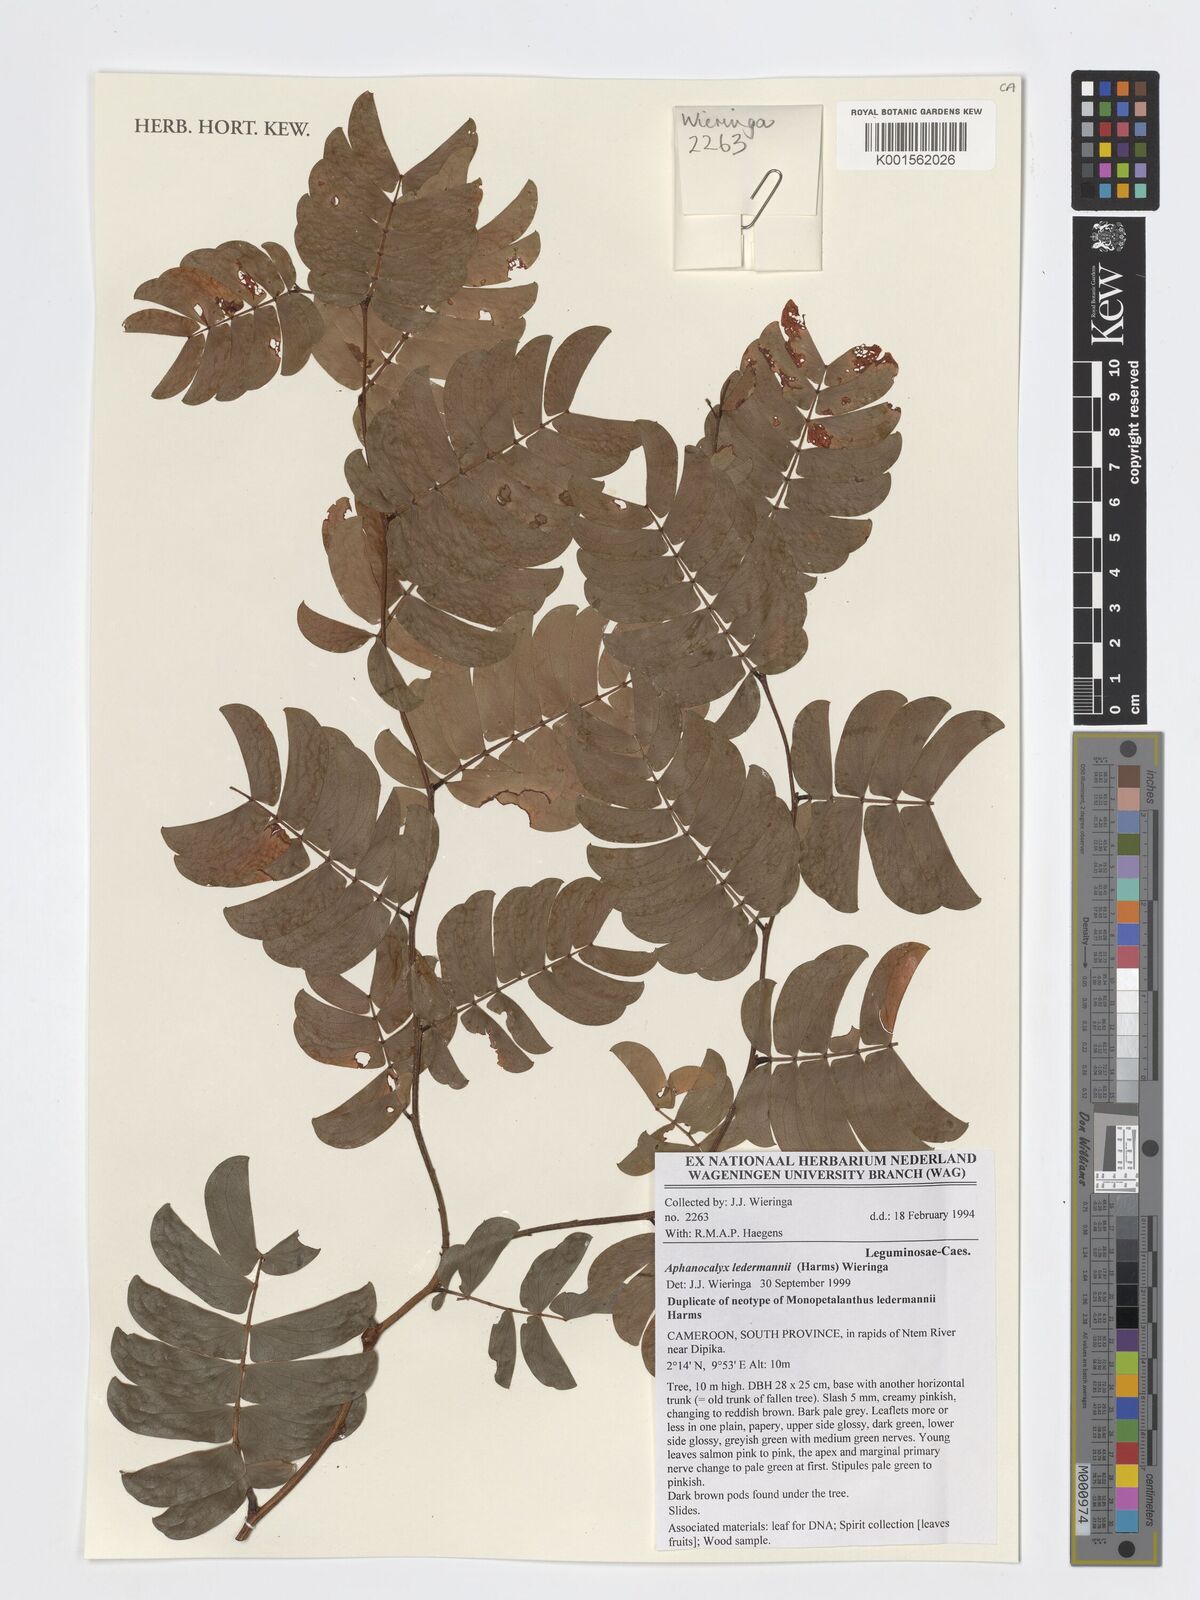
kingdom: Plantae
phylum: Tracheophyta
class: Magnoliopsida
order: Fabales
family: Fabaceae
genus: Aphanocalyx
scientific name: Aphanocalyx ledermannii
